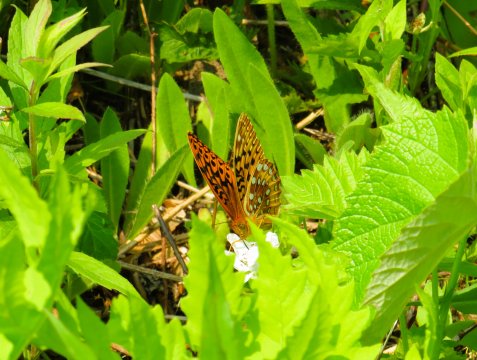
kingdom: Animalia
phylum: Arthropoda
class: Insecta
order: Lepidoptera
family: Nymphalidae
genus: Speyeria
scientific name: Speyeria cybele
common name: Great Spangled Fritillary
